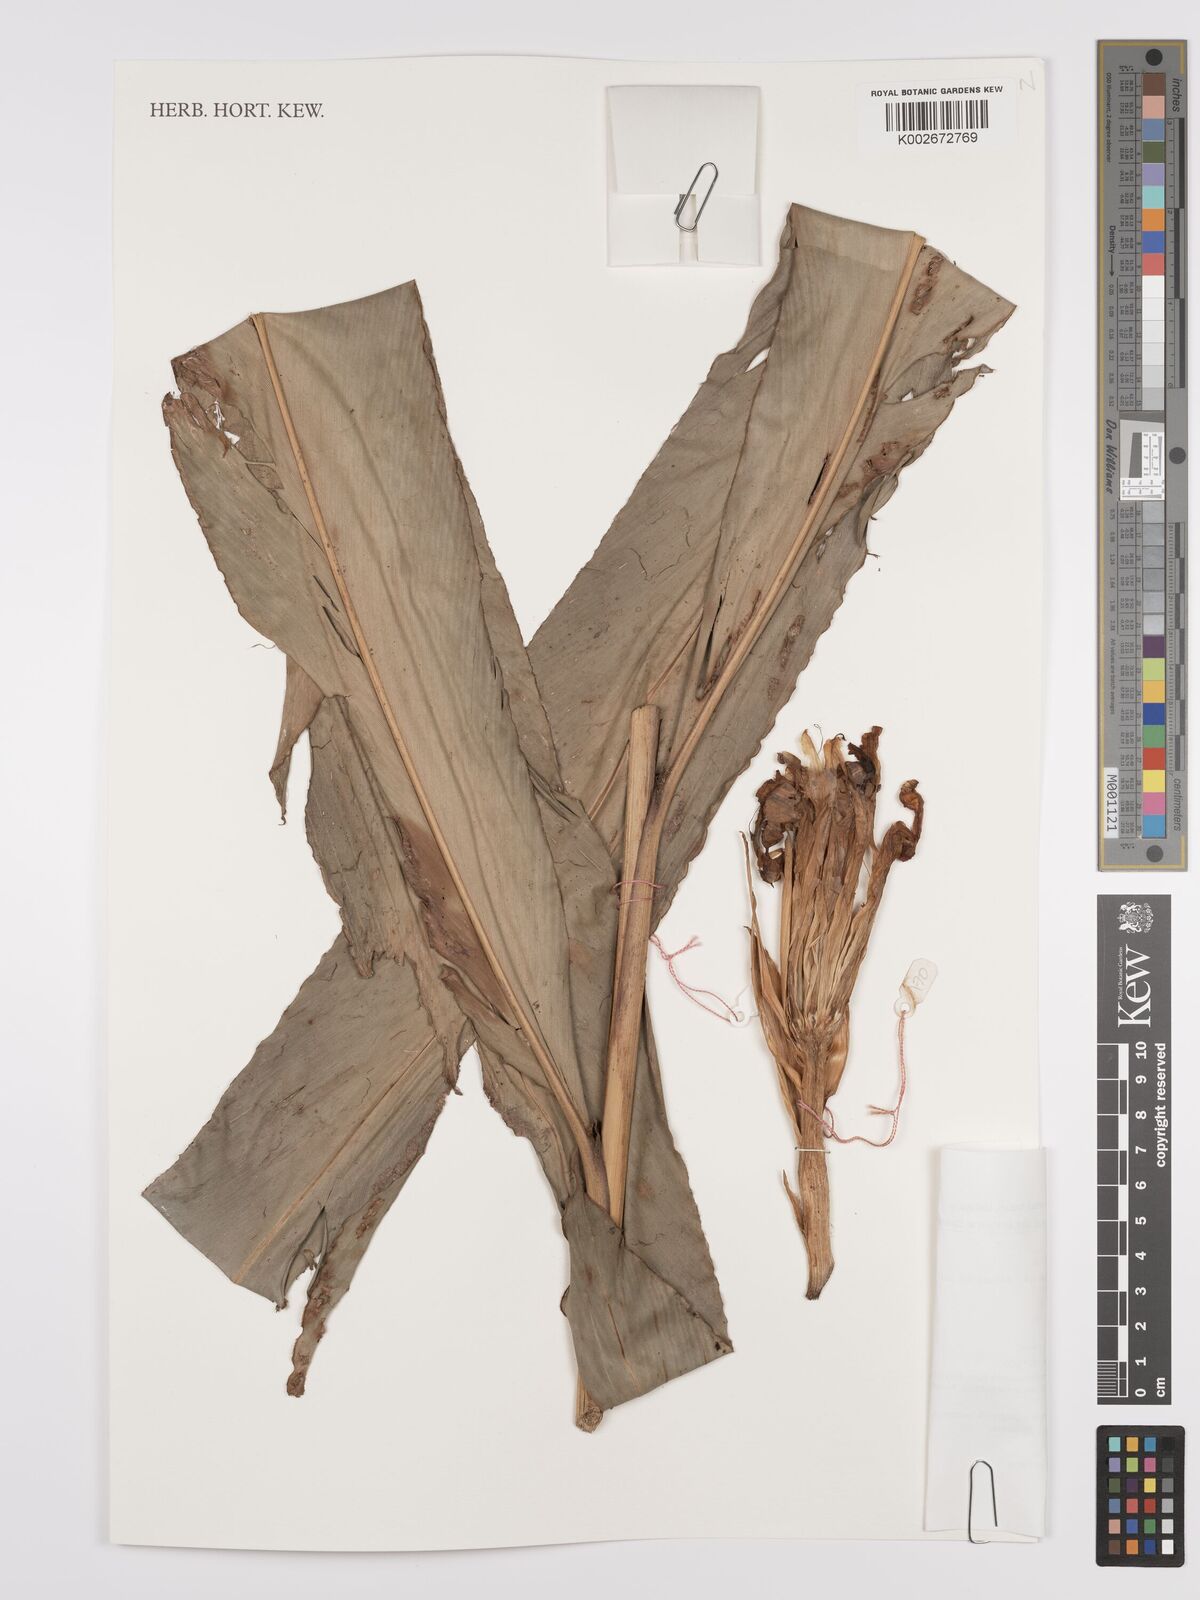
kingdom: Plantae
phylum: Tracheophyta
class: Liliopsida
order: Zingiberales
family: Zingiberaceae
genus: Etlingera
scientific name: Etlingera punicea
